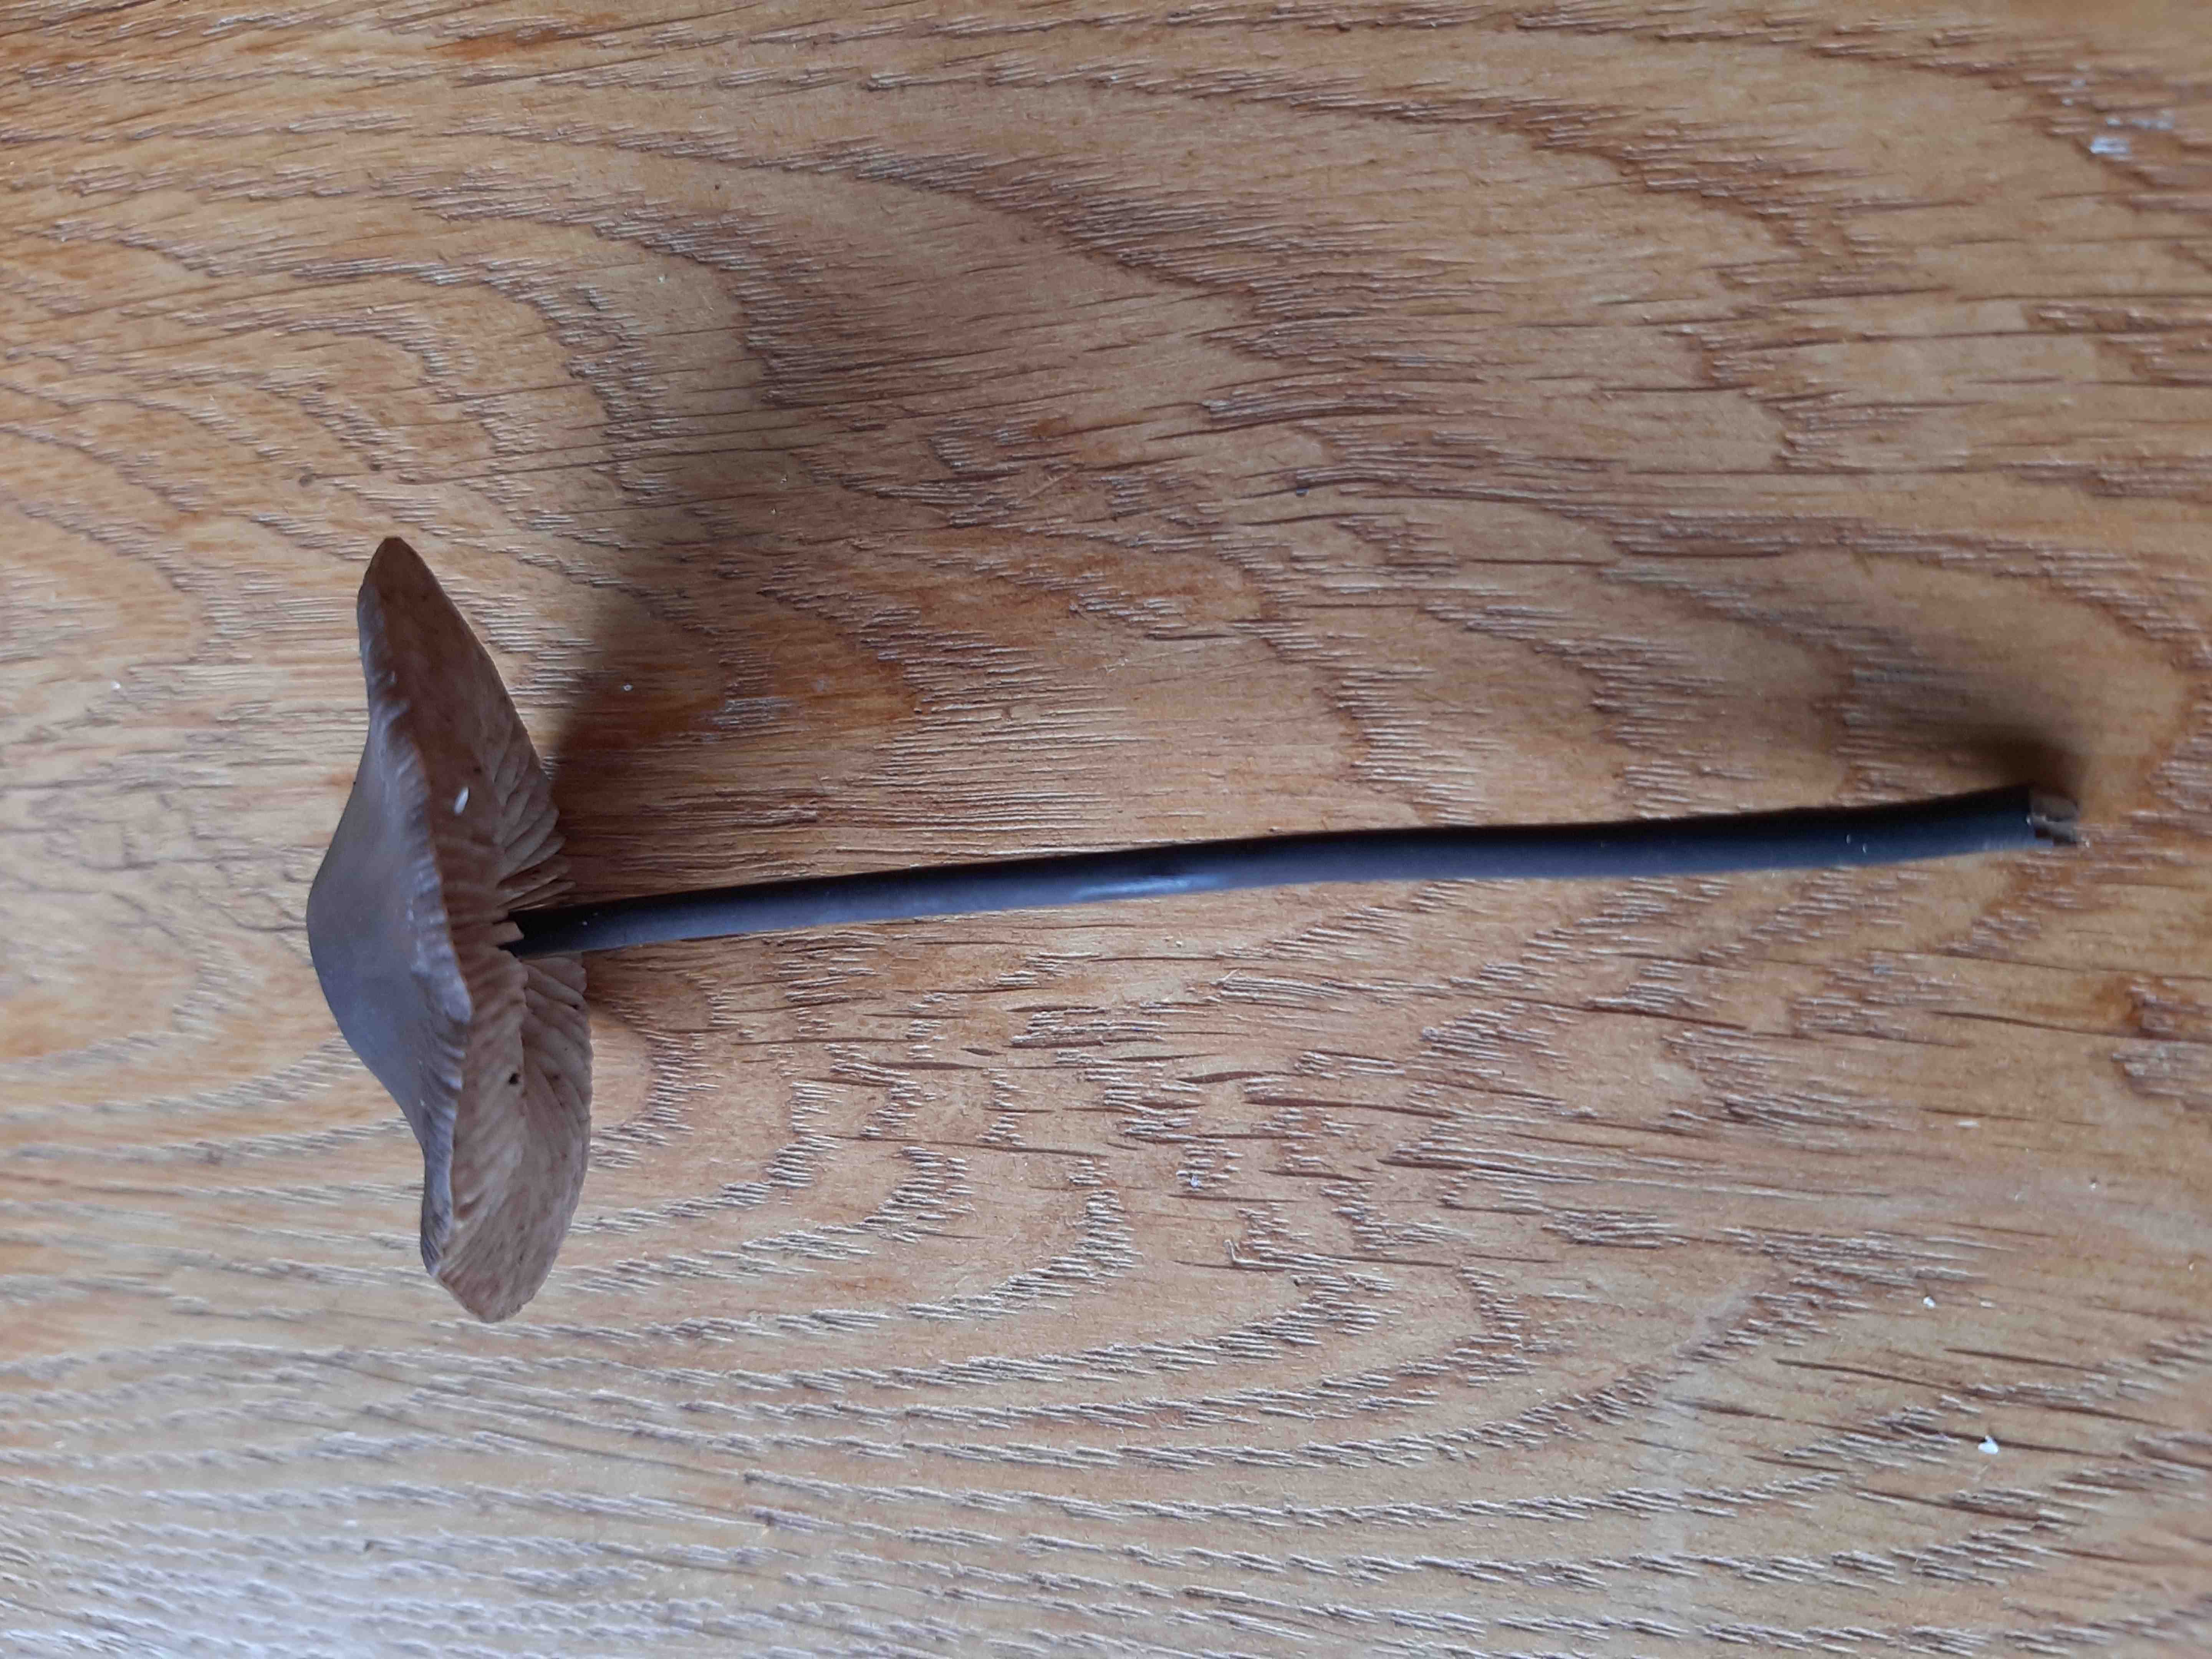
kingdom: Fungi
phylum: Basidiomycota
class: Agaricomycetes
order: Agaricales
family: Omphalotaceae
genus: Mycetinis
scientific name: Mycetinis alliaceus
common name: stor løghat
